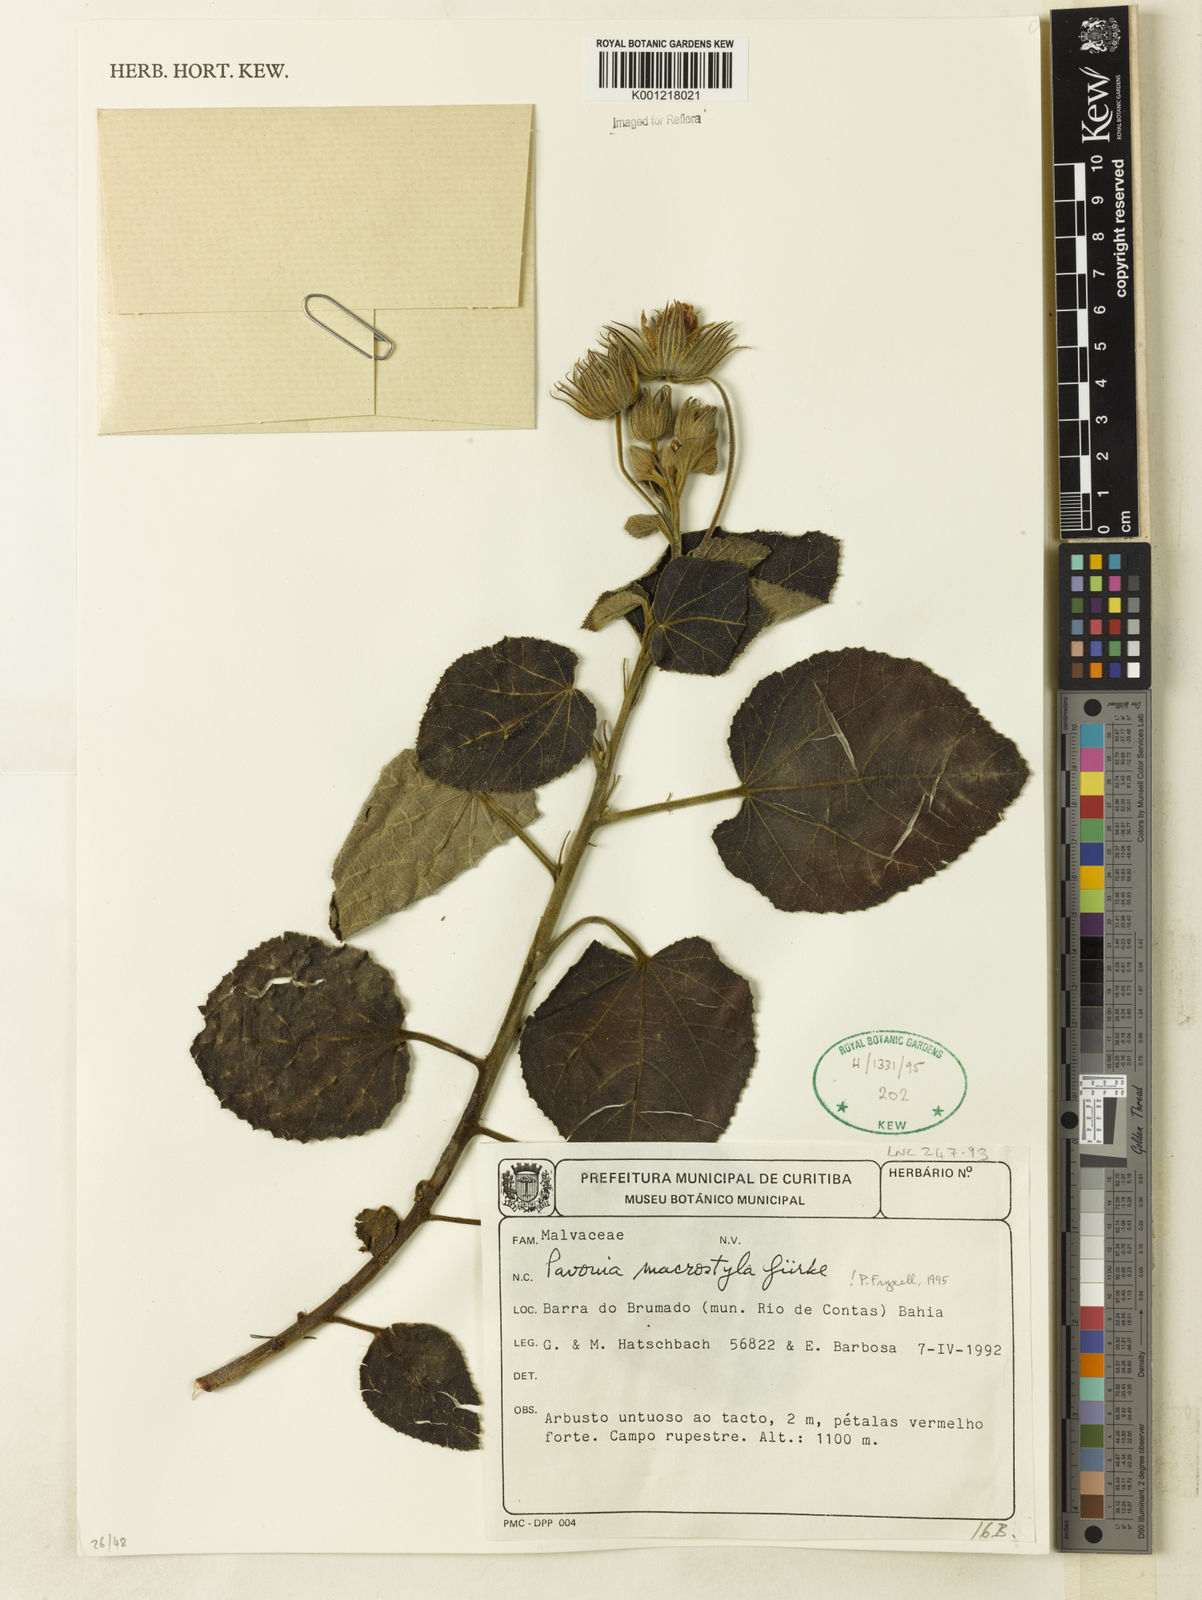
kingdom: Plantae
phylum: Tracheophyta
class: Magnoliopsida
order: Malvales
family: Malvaceae
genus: Pavonia
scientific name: Pavonia
